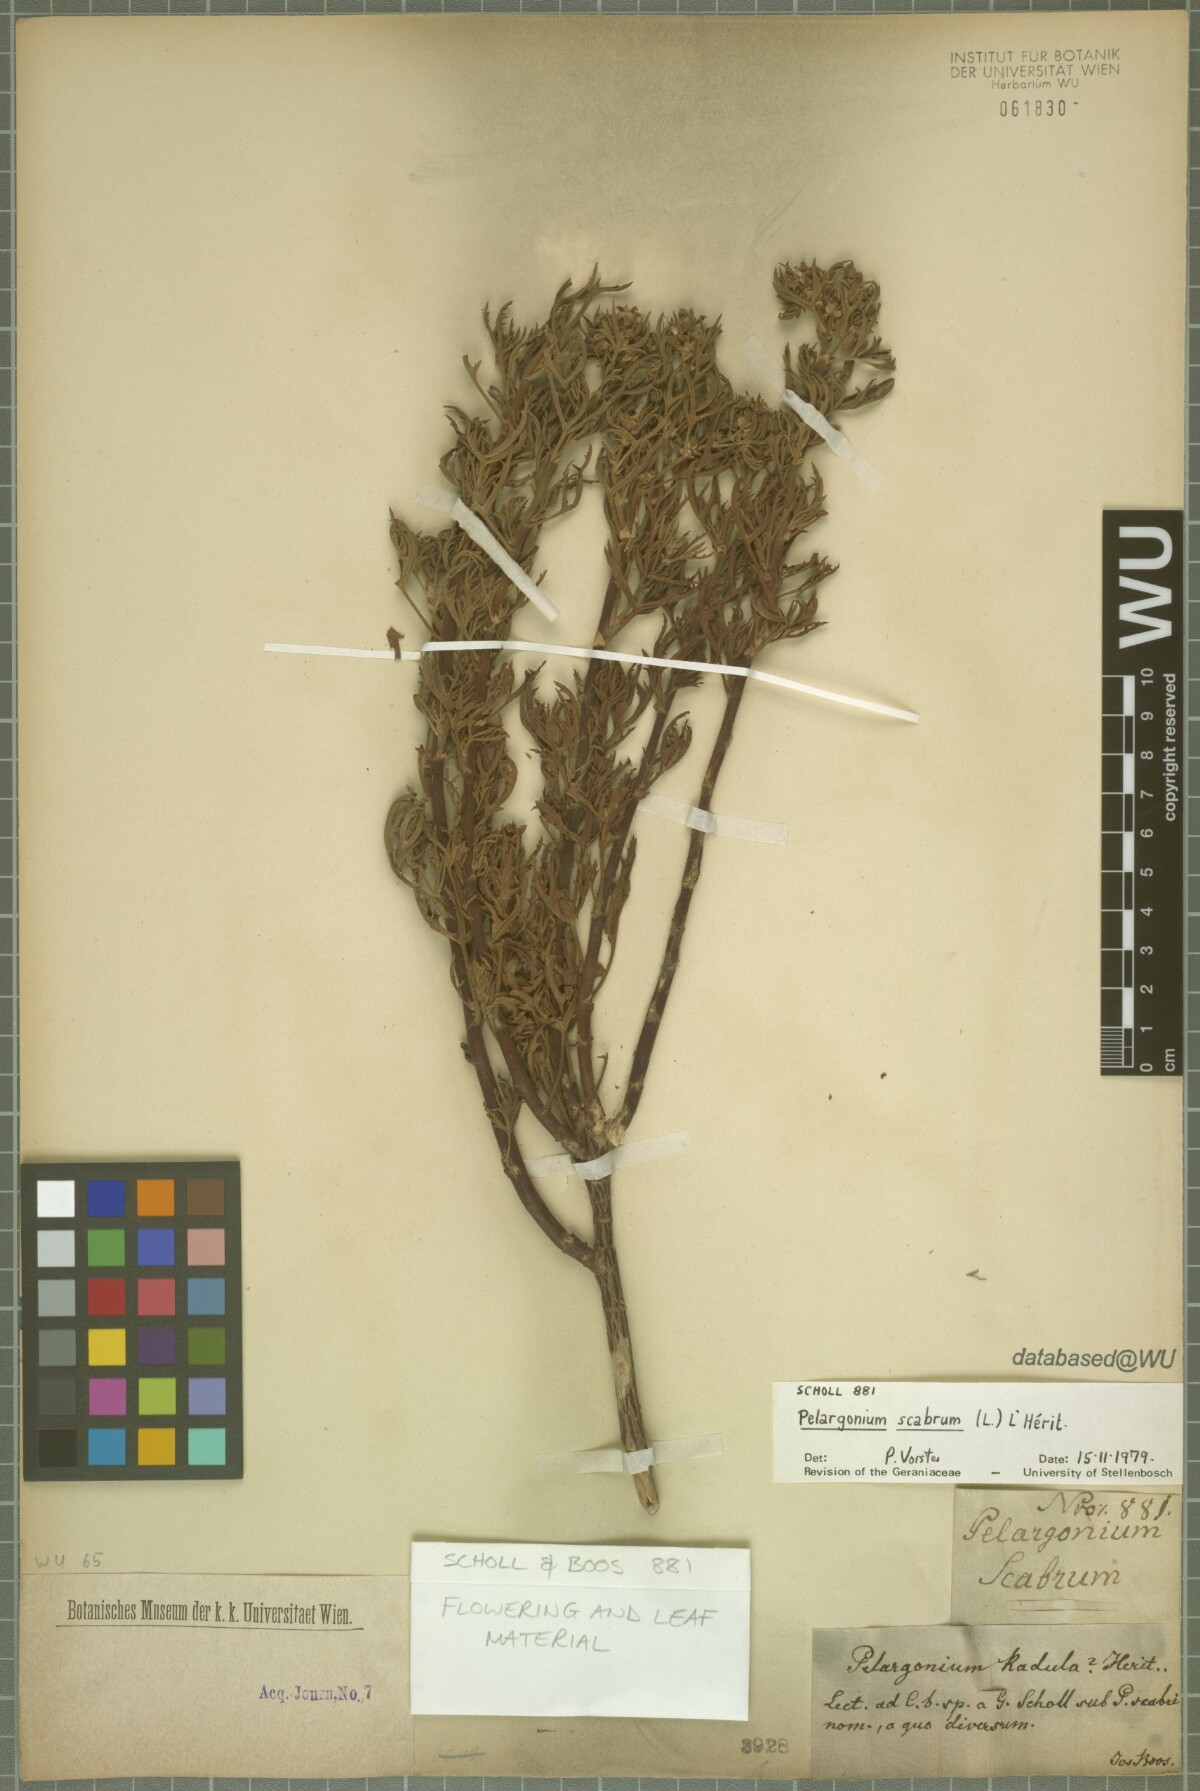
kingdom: Plantae
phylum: Tracheophyta
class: Magnoliopsida
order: Geraniales
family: Geraniaceae
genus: Pelargonium
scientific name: Pelargonium scabrum
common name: Apricot geranium
